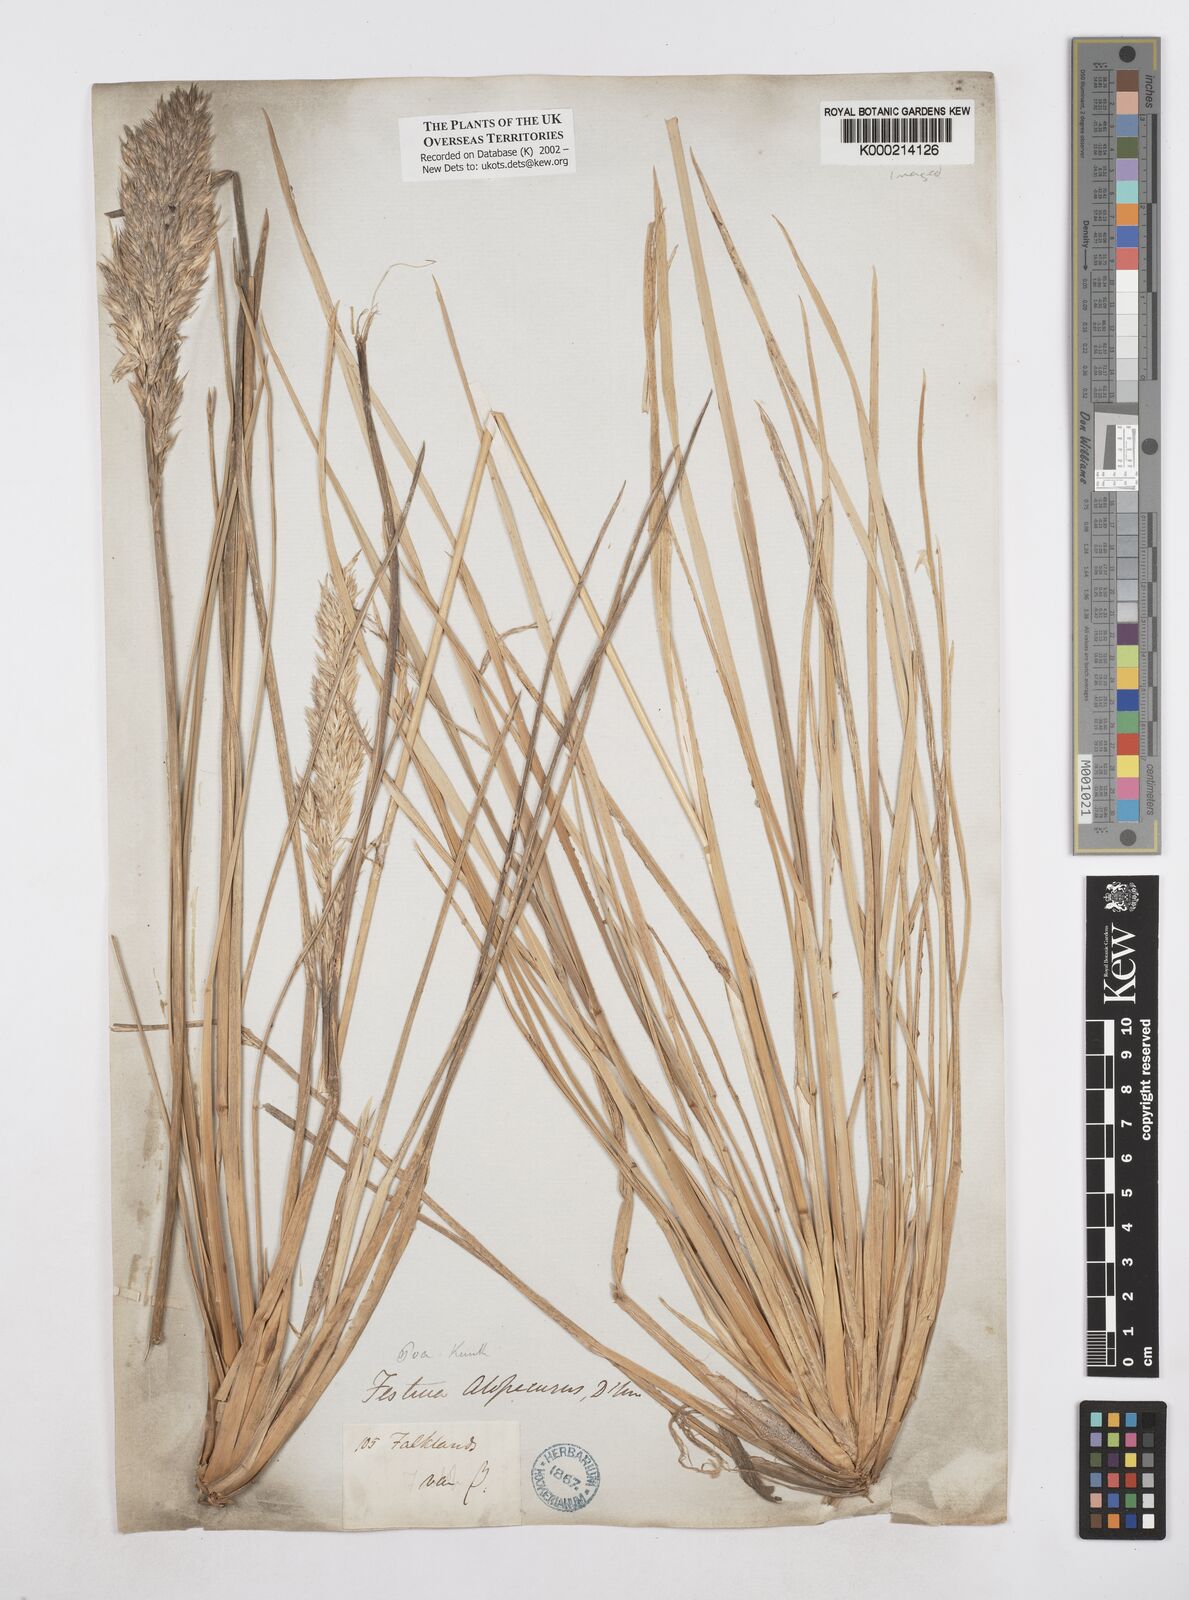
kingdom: Plantae
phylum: Tracheophyta
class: Liliopsida
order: Poales
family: Poaceae
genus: Poa
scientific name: Poa alopecurus
